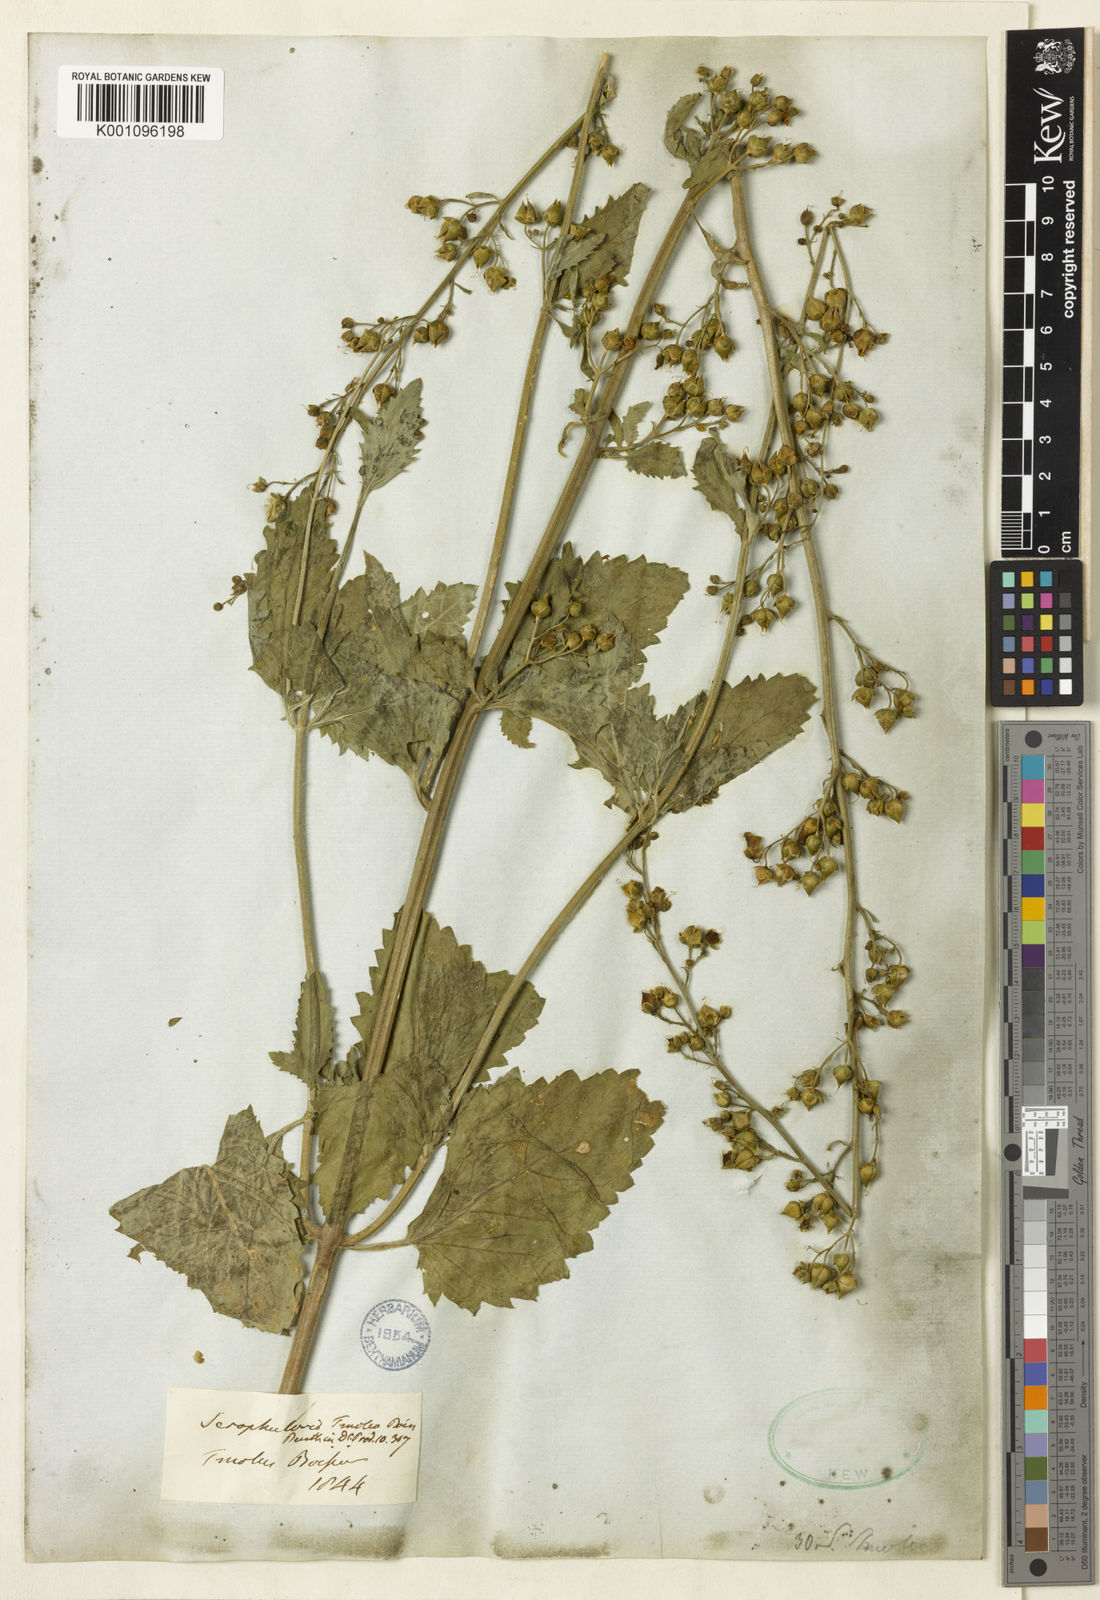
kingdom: Plantae
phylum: Tracheophyta
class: Magnoliopsida
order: Lamiales
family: Scrophulariaceae
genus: Scrophularia
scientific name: Scrophularia scopolii
